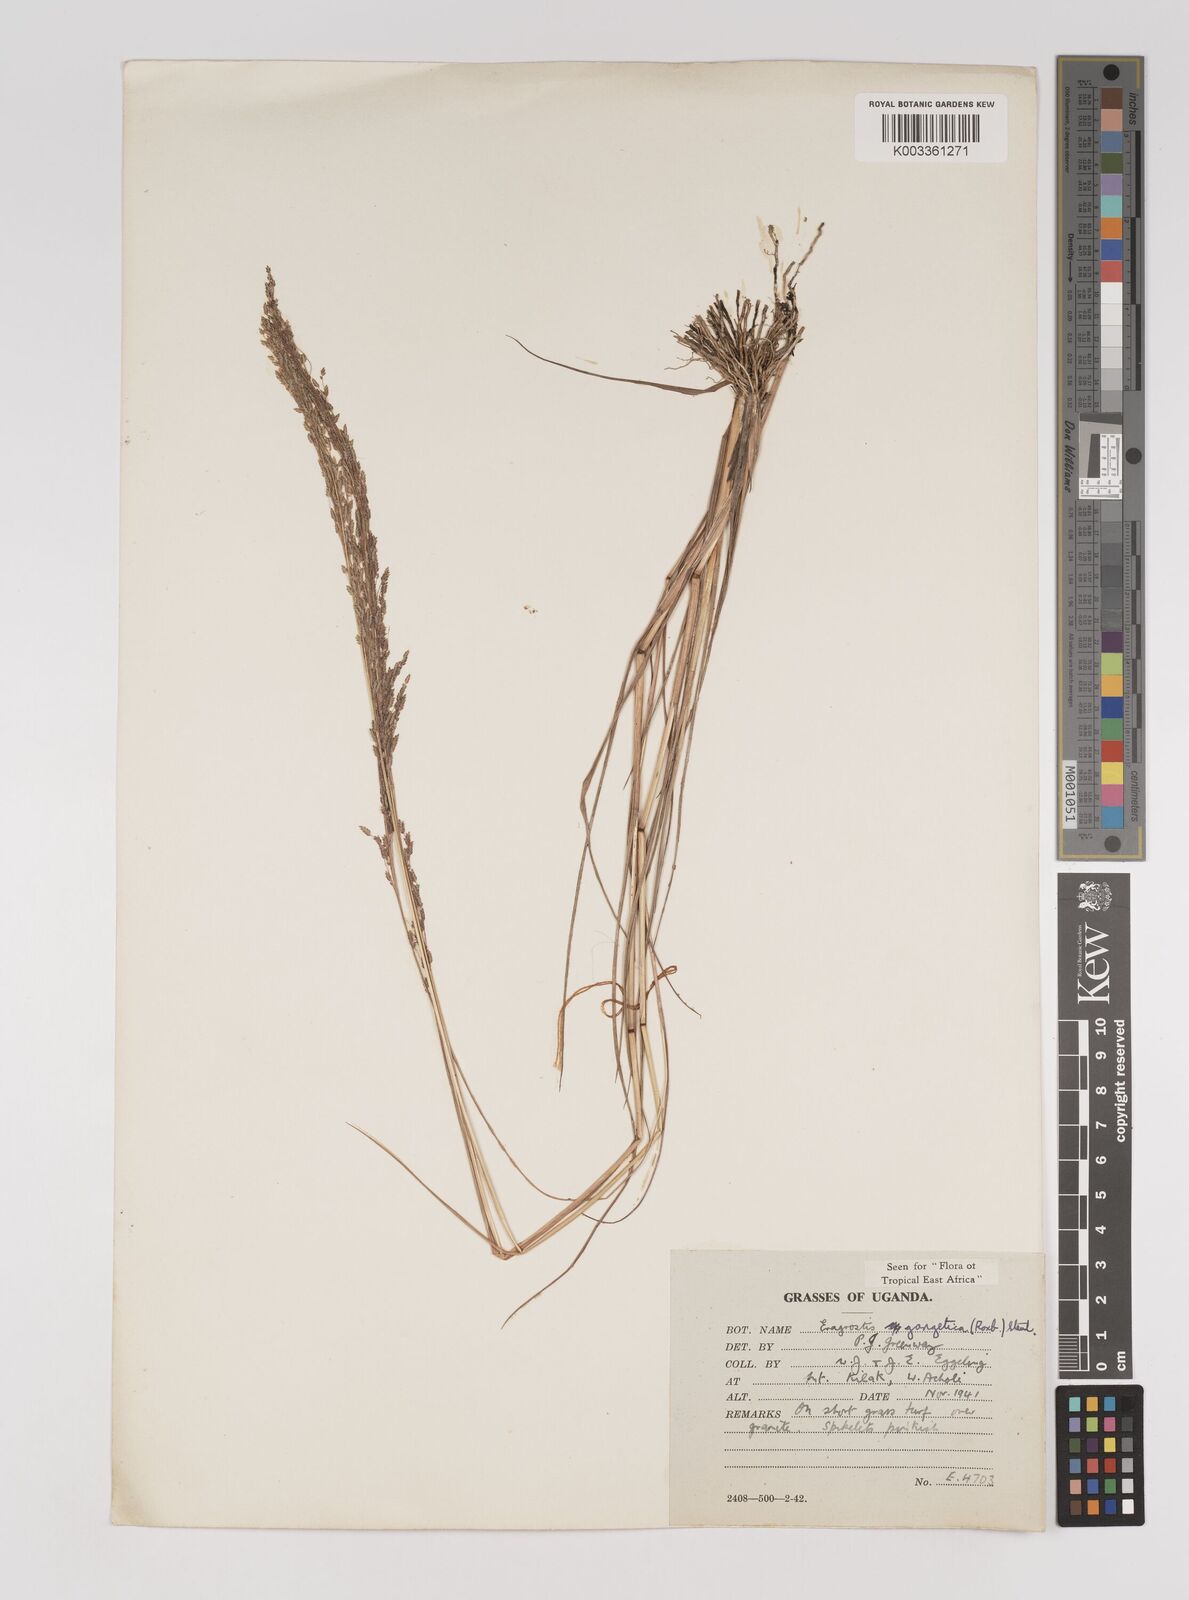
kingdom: Plantae
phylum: Tracheophyta
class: Liliopsida
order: Poales
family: Poaceae
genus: Eragrostis
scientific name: Eragrostis gangetica
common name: Slimflower lovegrass
